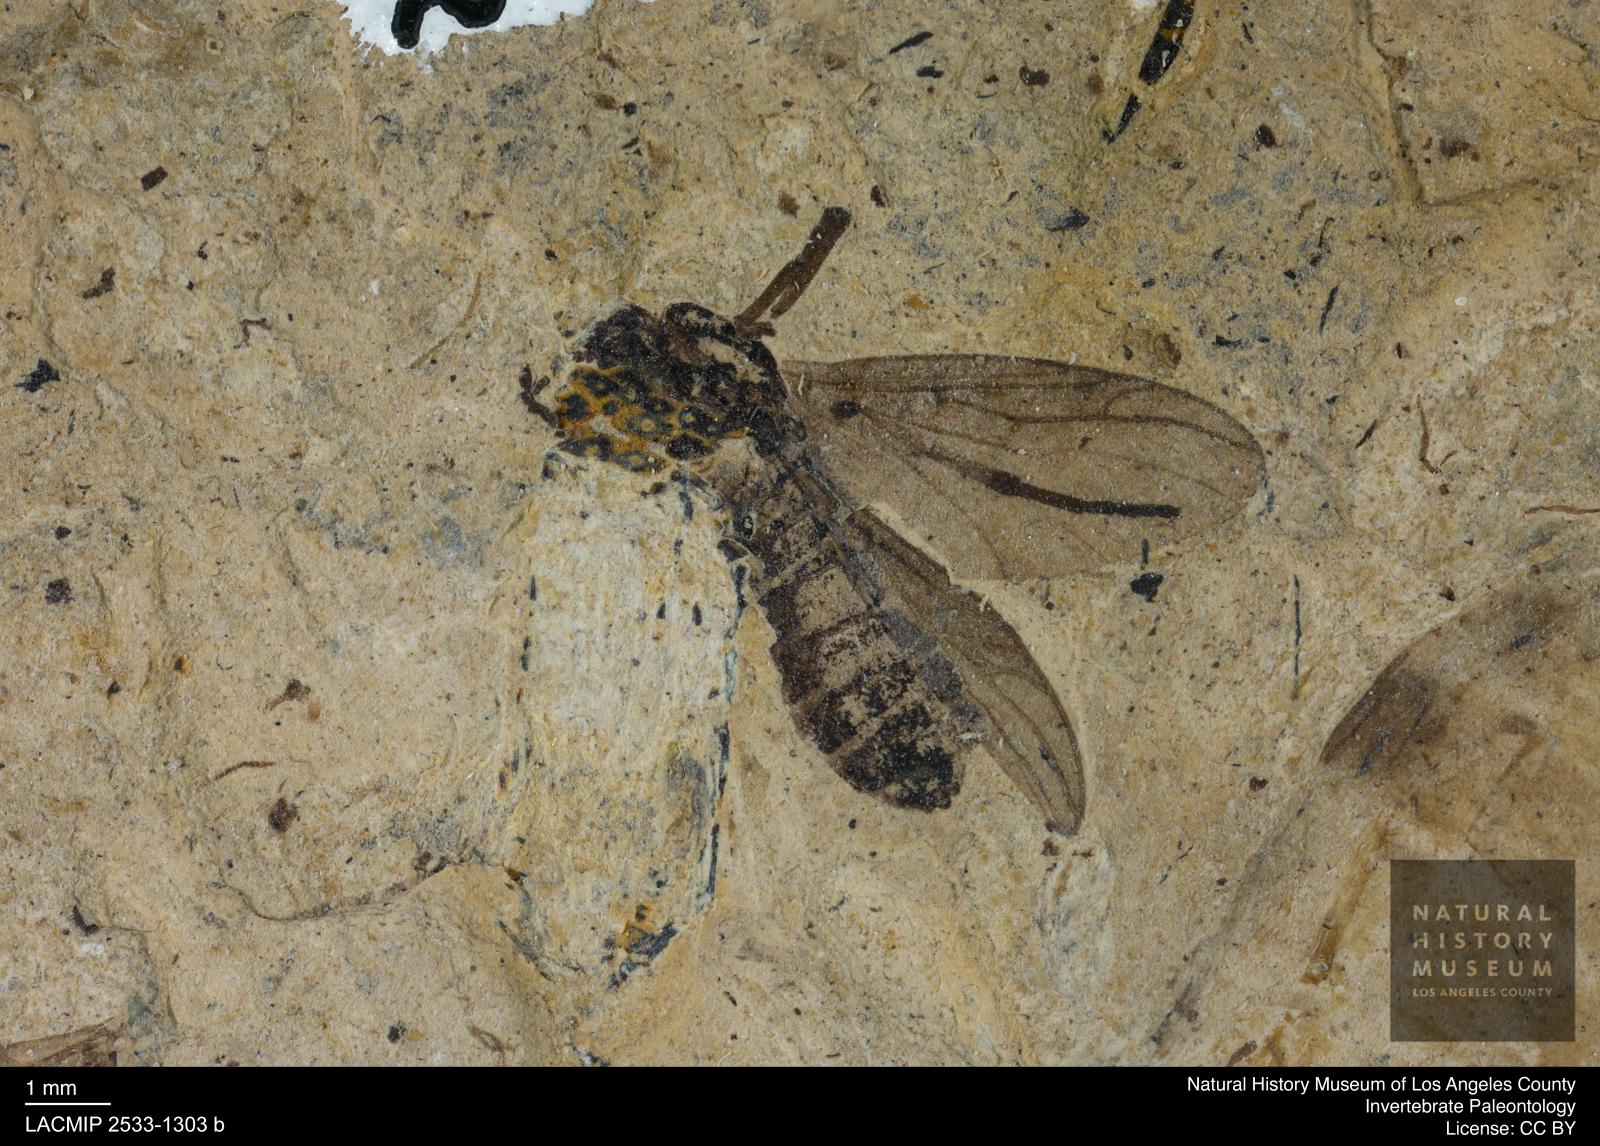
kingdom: Animalia
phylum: Arthropoda
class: Insecta
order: Diptera
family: Bibionidae
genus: Plecia
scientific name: Plecia stygia
